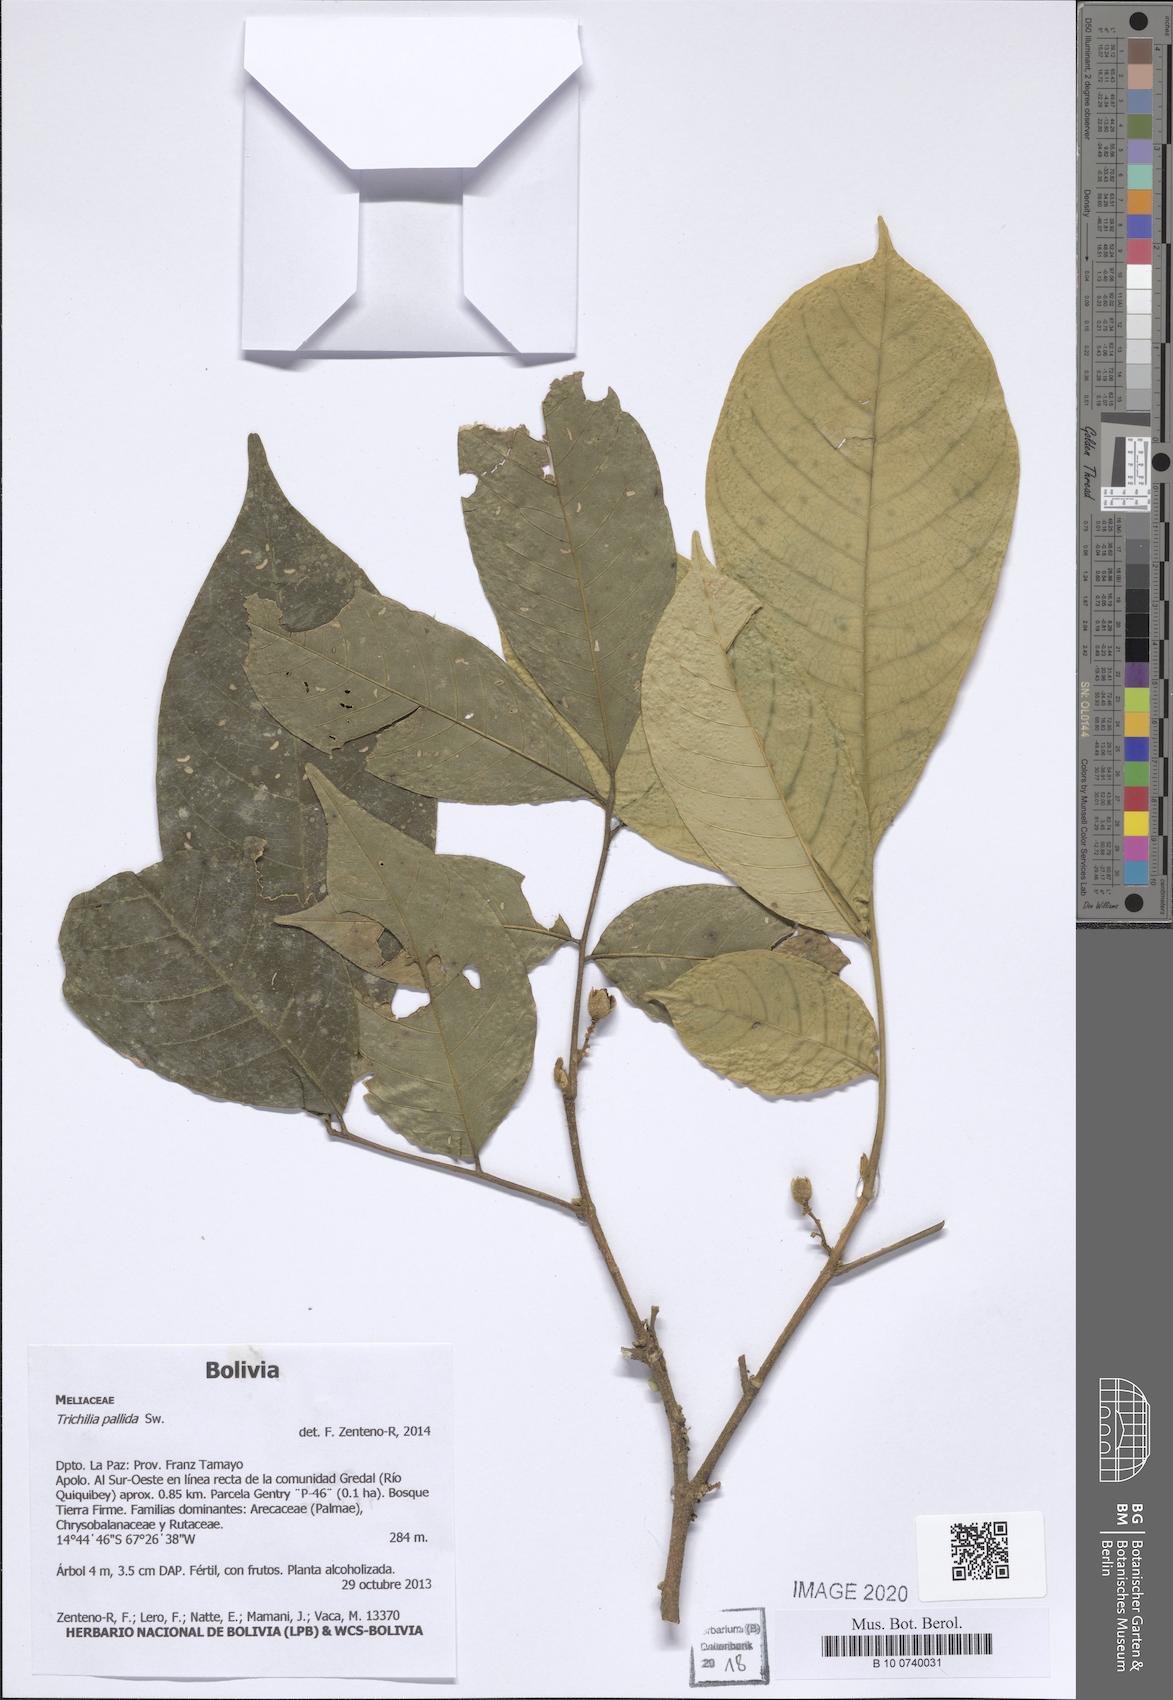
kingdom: Plantae
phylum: Tracheophyta
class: Magnoliopsida
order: Sapindales
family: Meliaceae
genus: Trichilia
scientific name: Trichilia pallida
